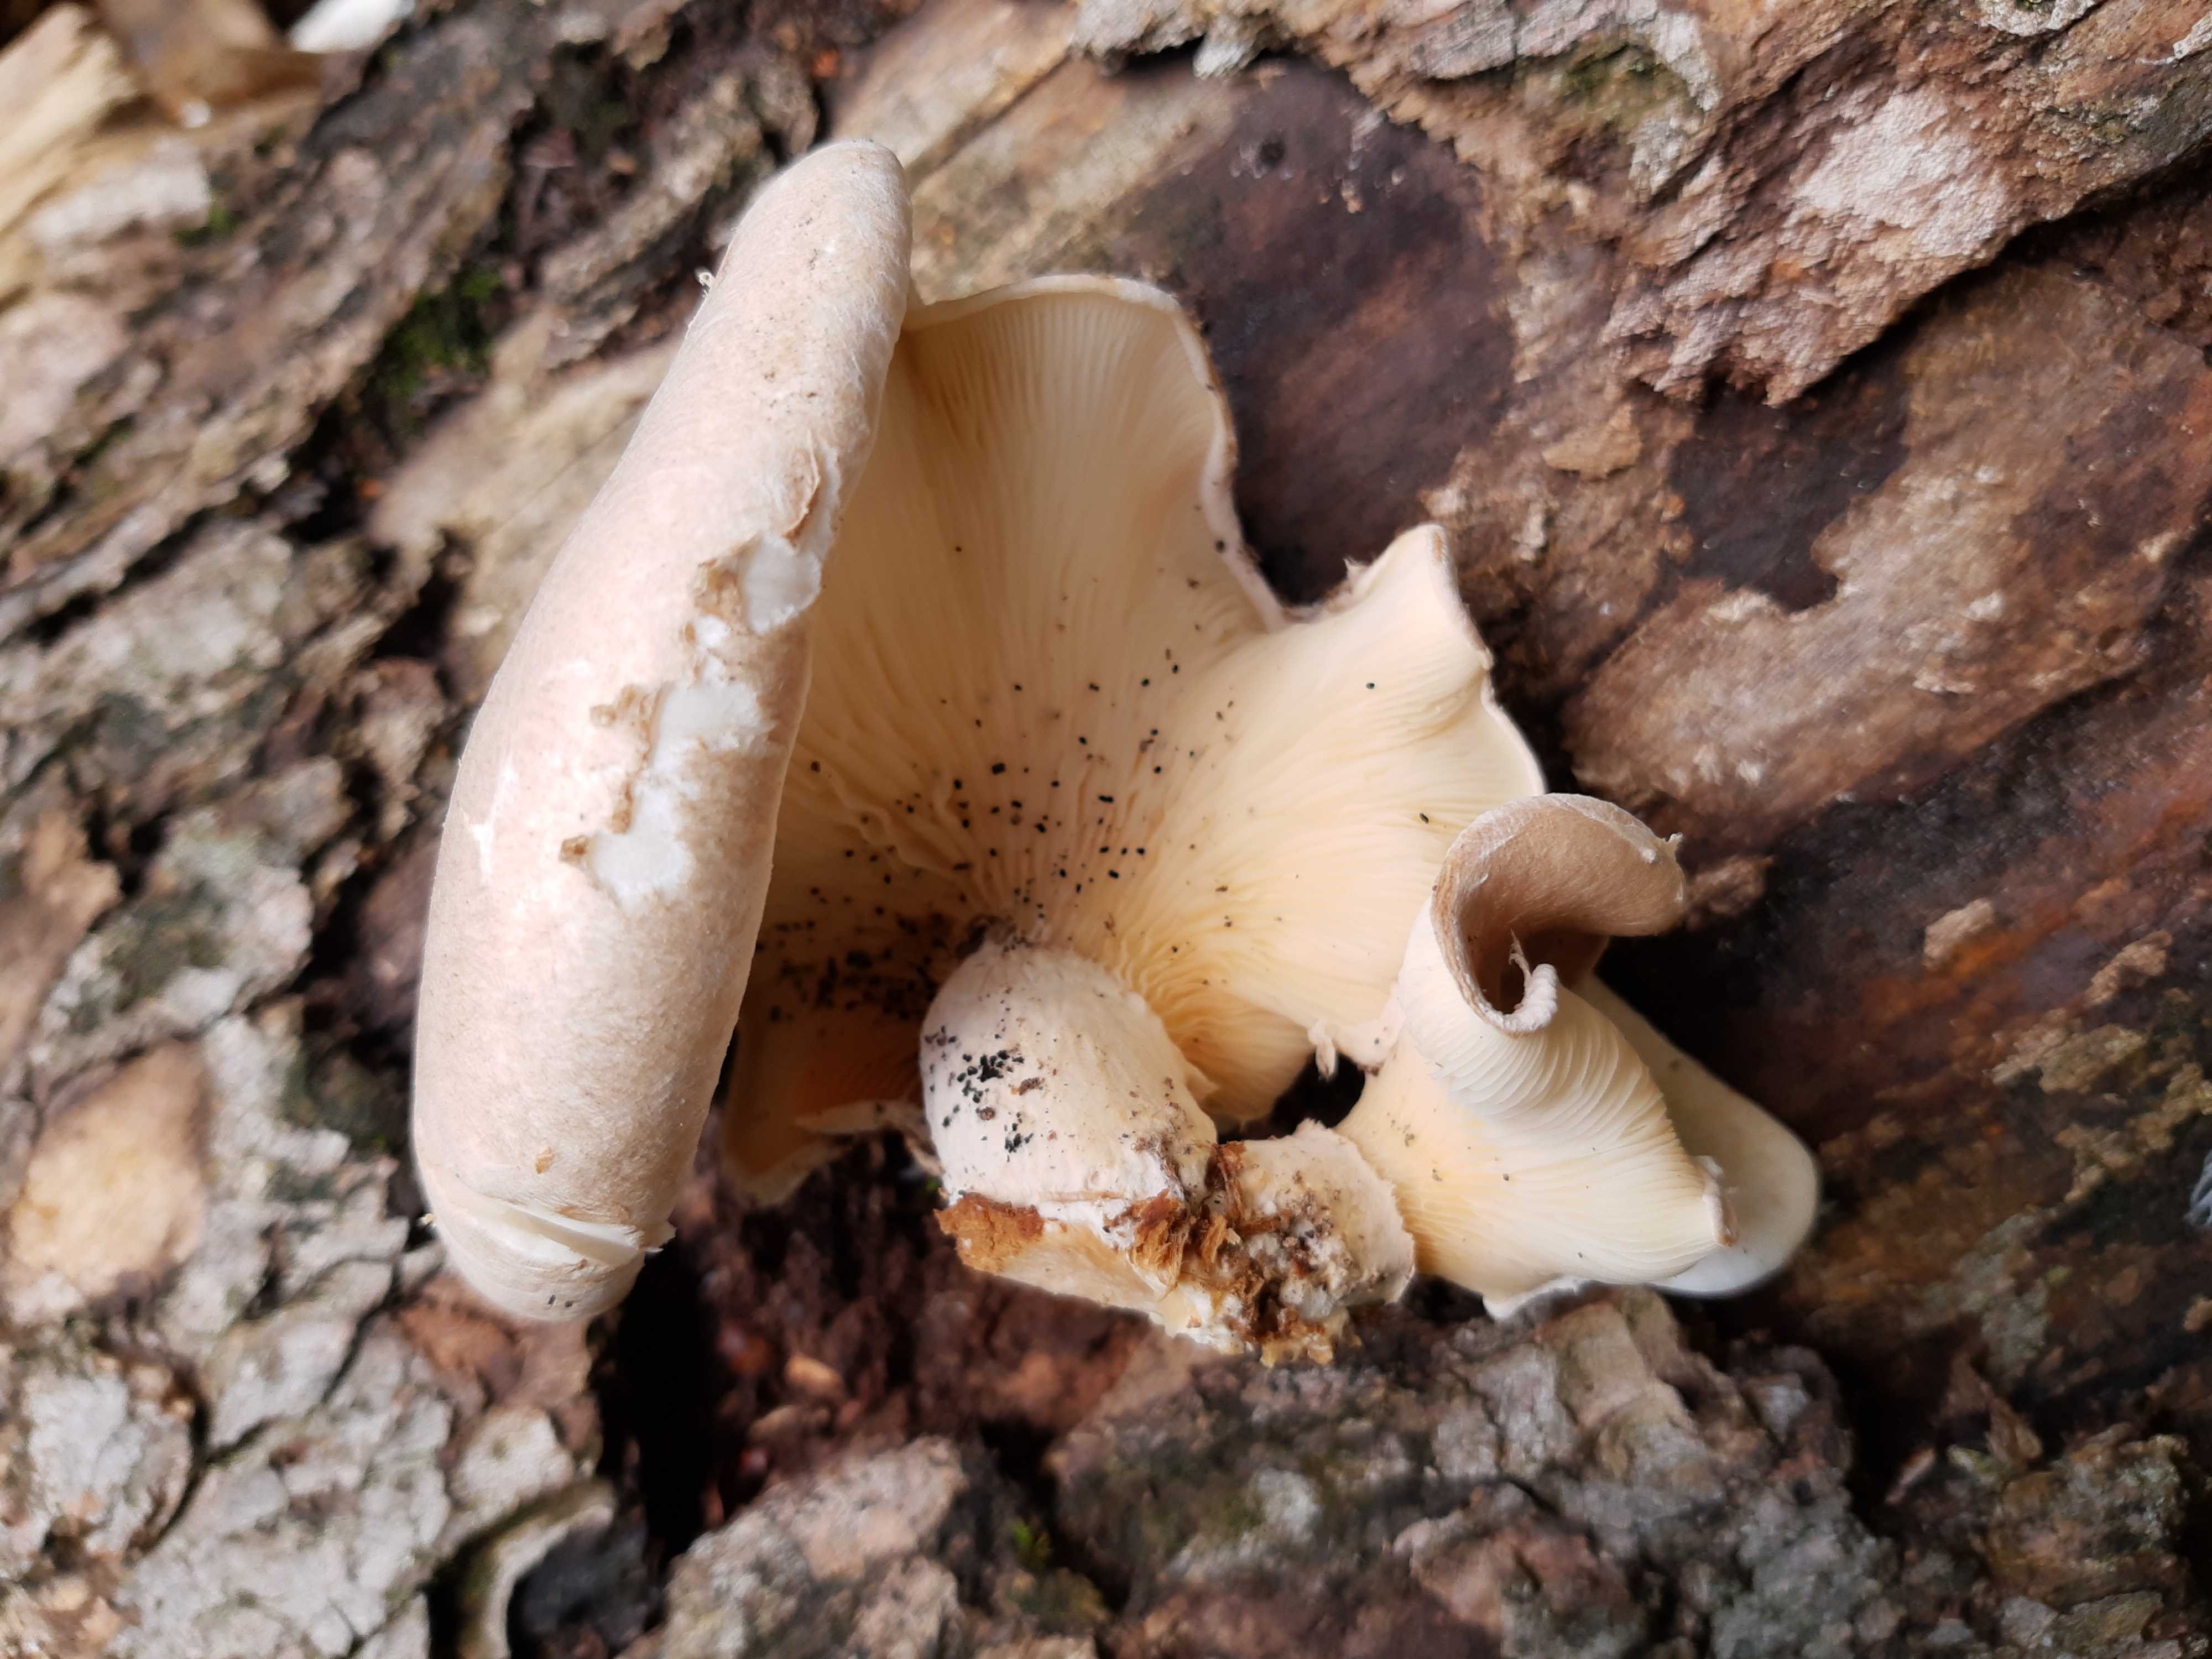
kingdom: Fungi
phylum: Basidiomycota
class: Agaricomycetes
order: Agaricales
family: Pleurotaceae
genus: Pleurotus
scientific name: Pleurotus dryinus
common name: korkagtig østershat
